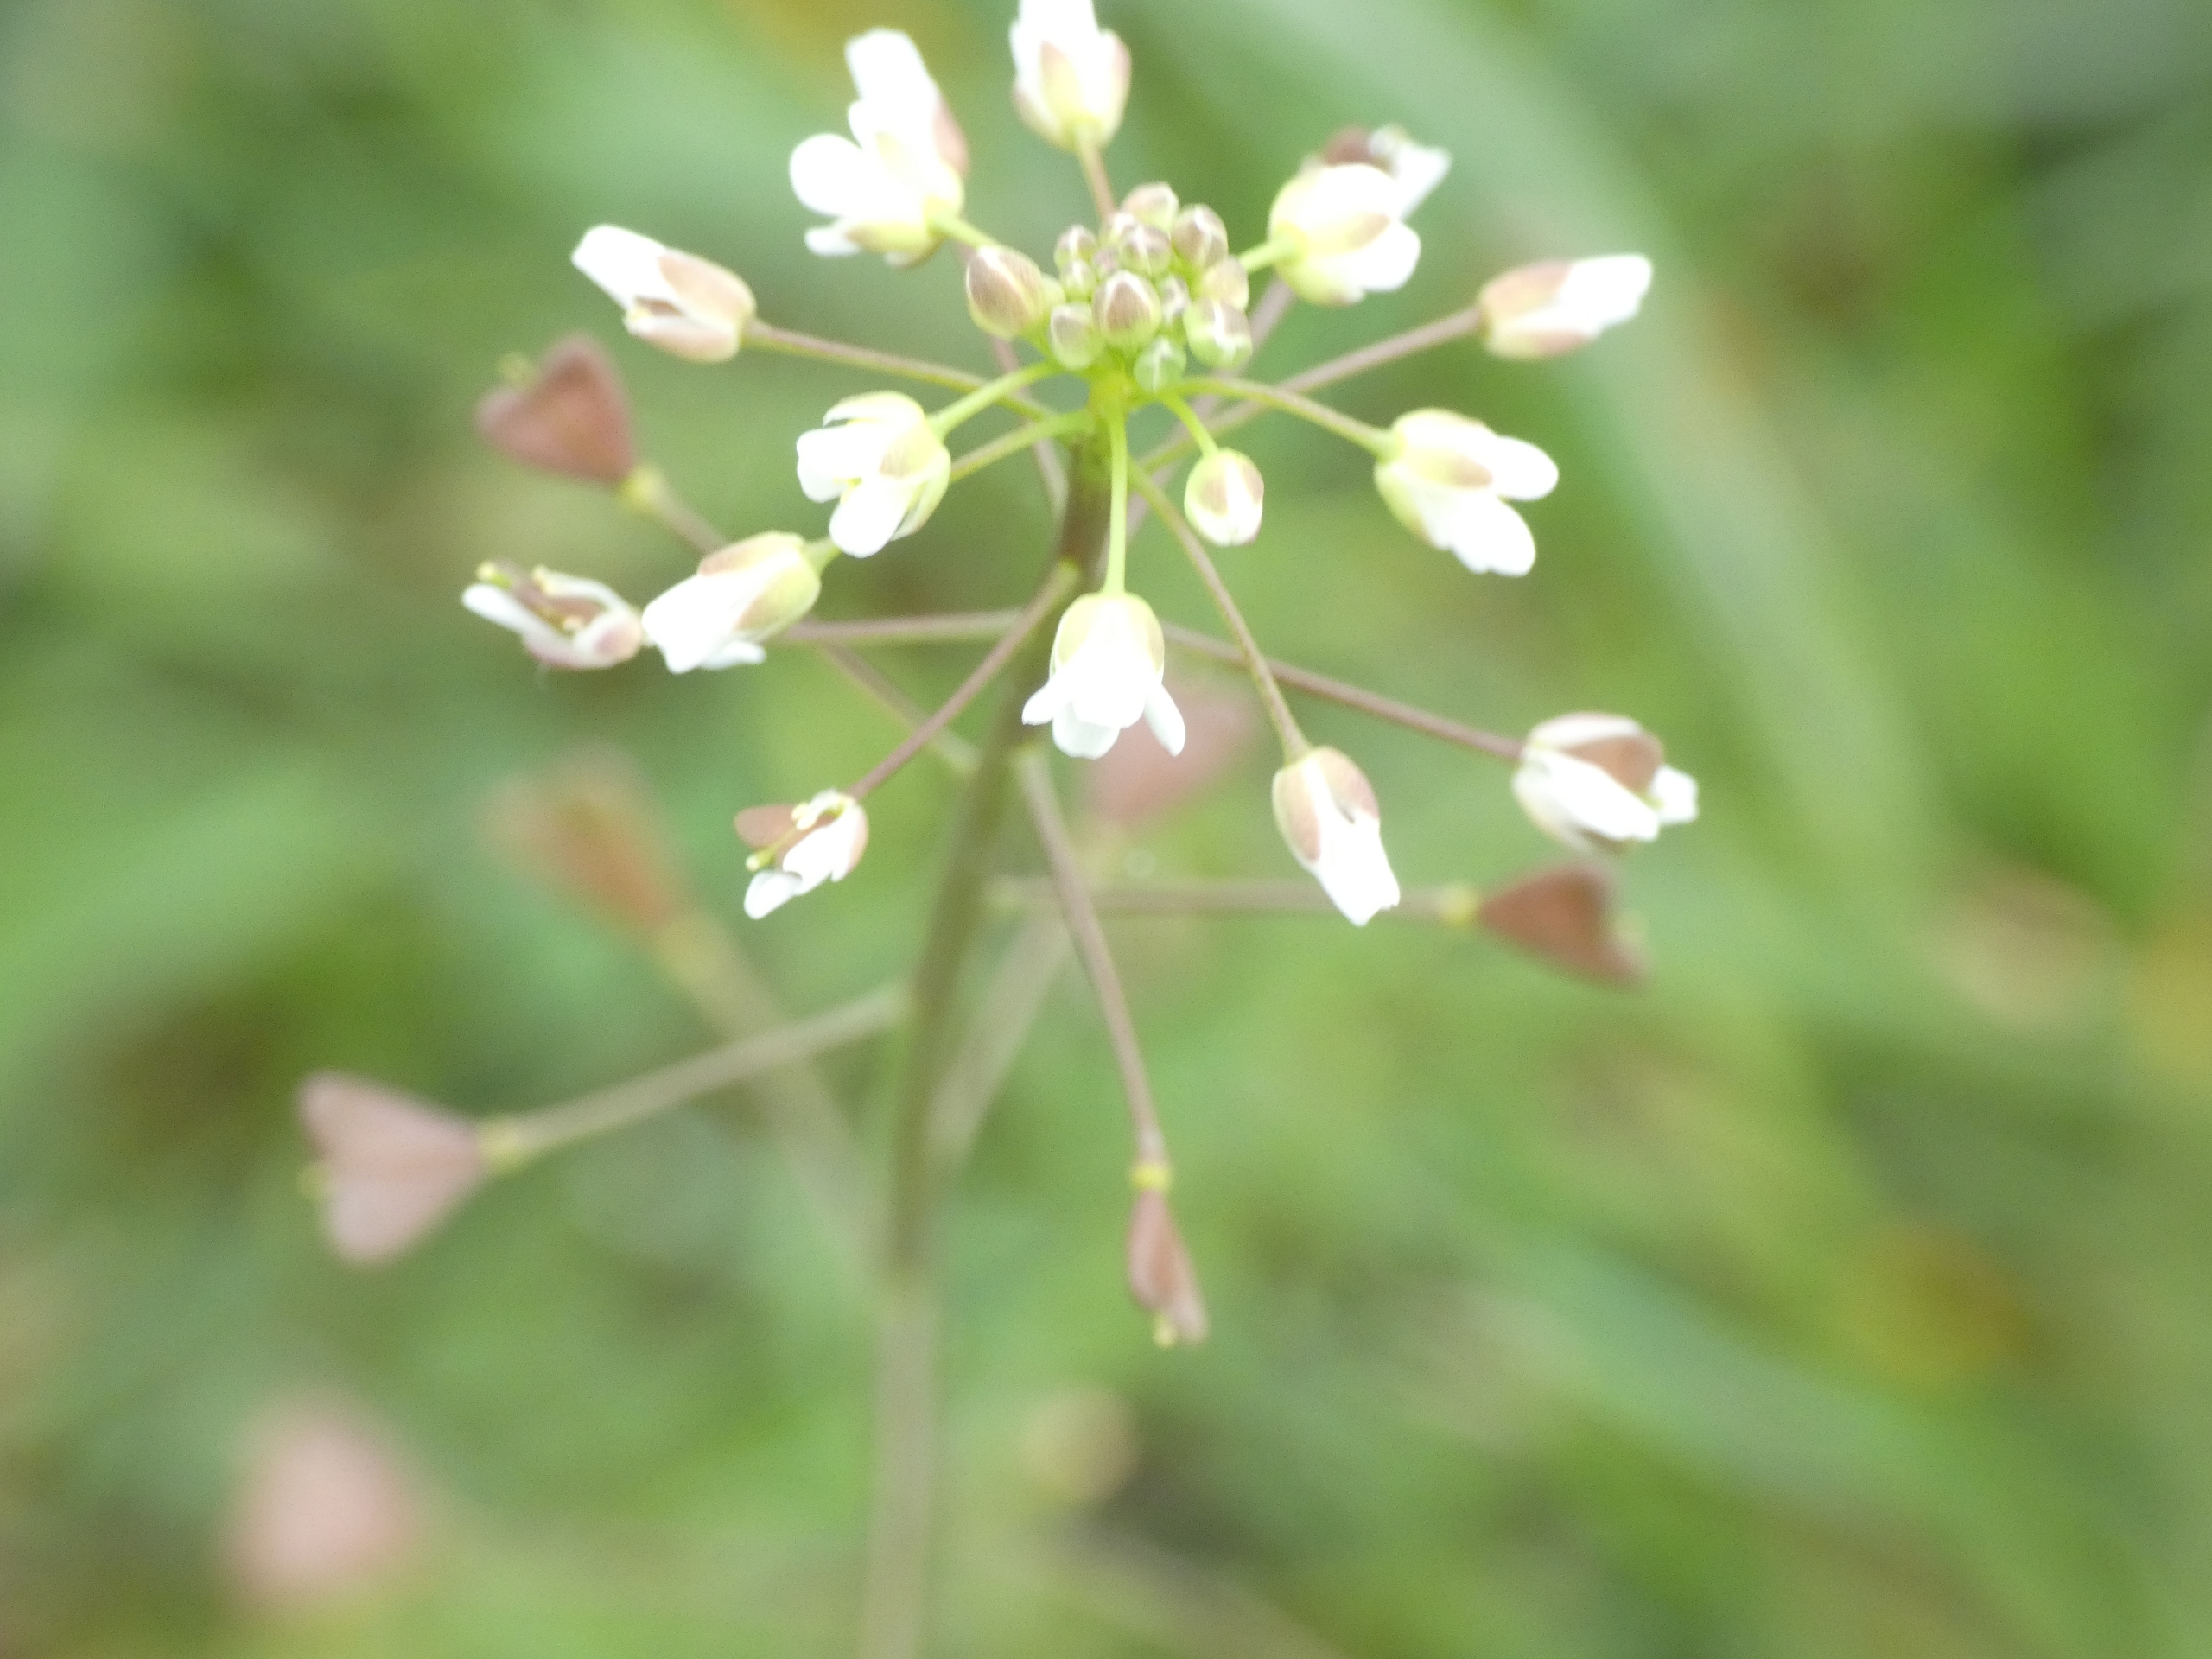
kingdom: Plantae
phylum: Tracheophyta
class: Magnoliopsida
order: Brassicales
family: Brassicaceae
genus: Capsella
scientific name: Capsella bursa-pastoris
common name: Hyrdetaske
